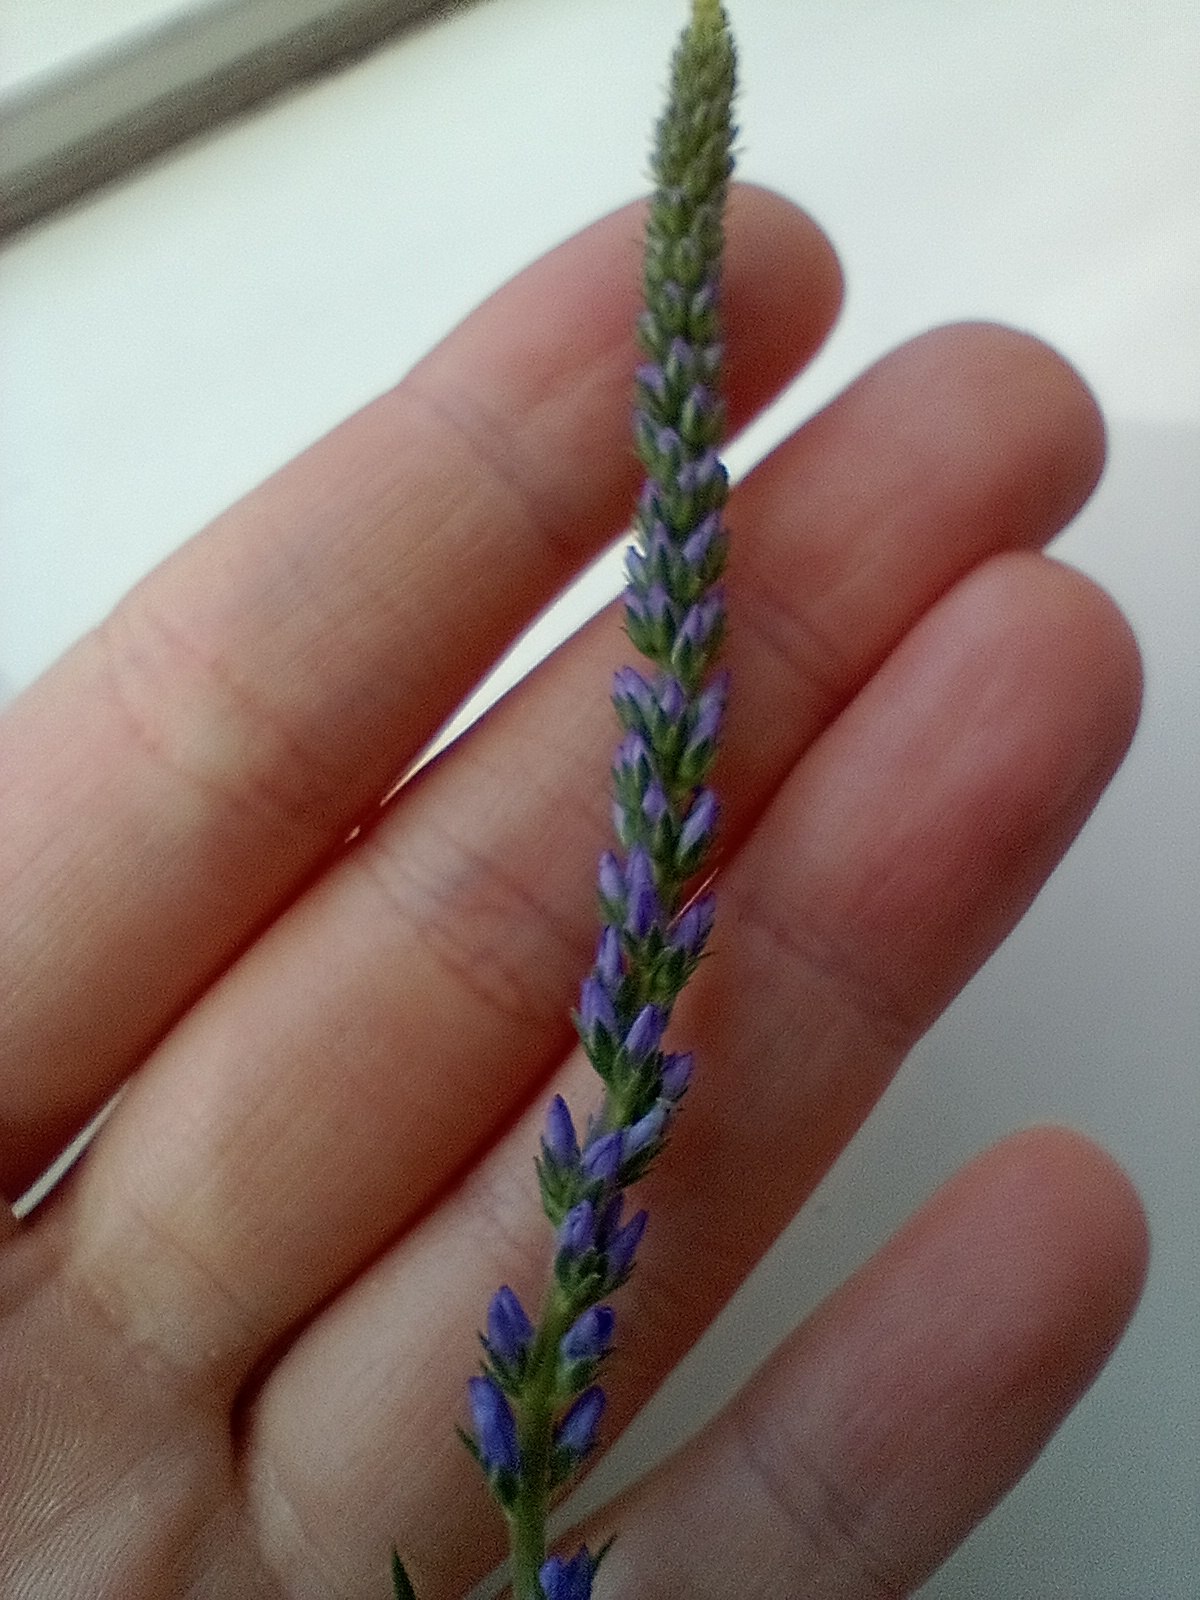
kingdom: Plantae
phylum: Tracheophyta
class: Magnoliopsida
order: Lamiales
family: Plantaginaceae
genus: Veronica
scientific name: Veronica longifolia
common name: Langbladet ærenpris
